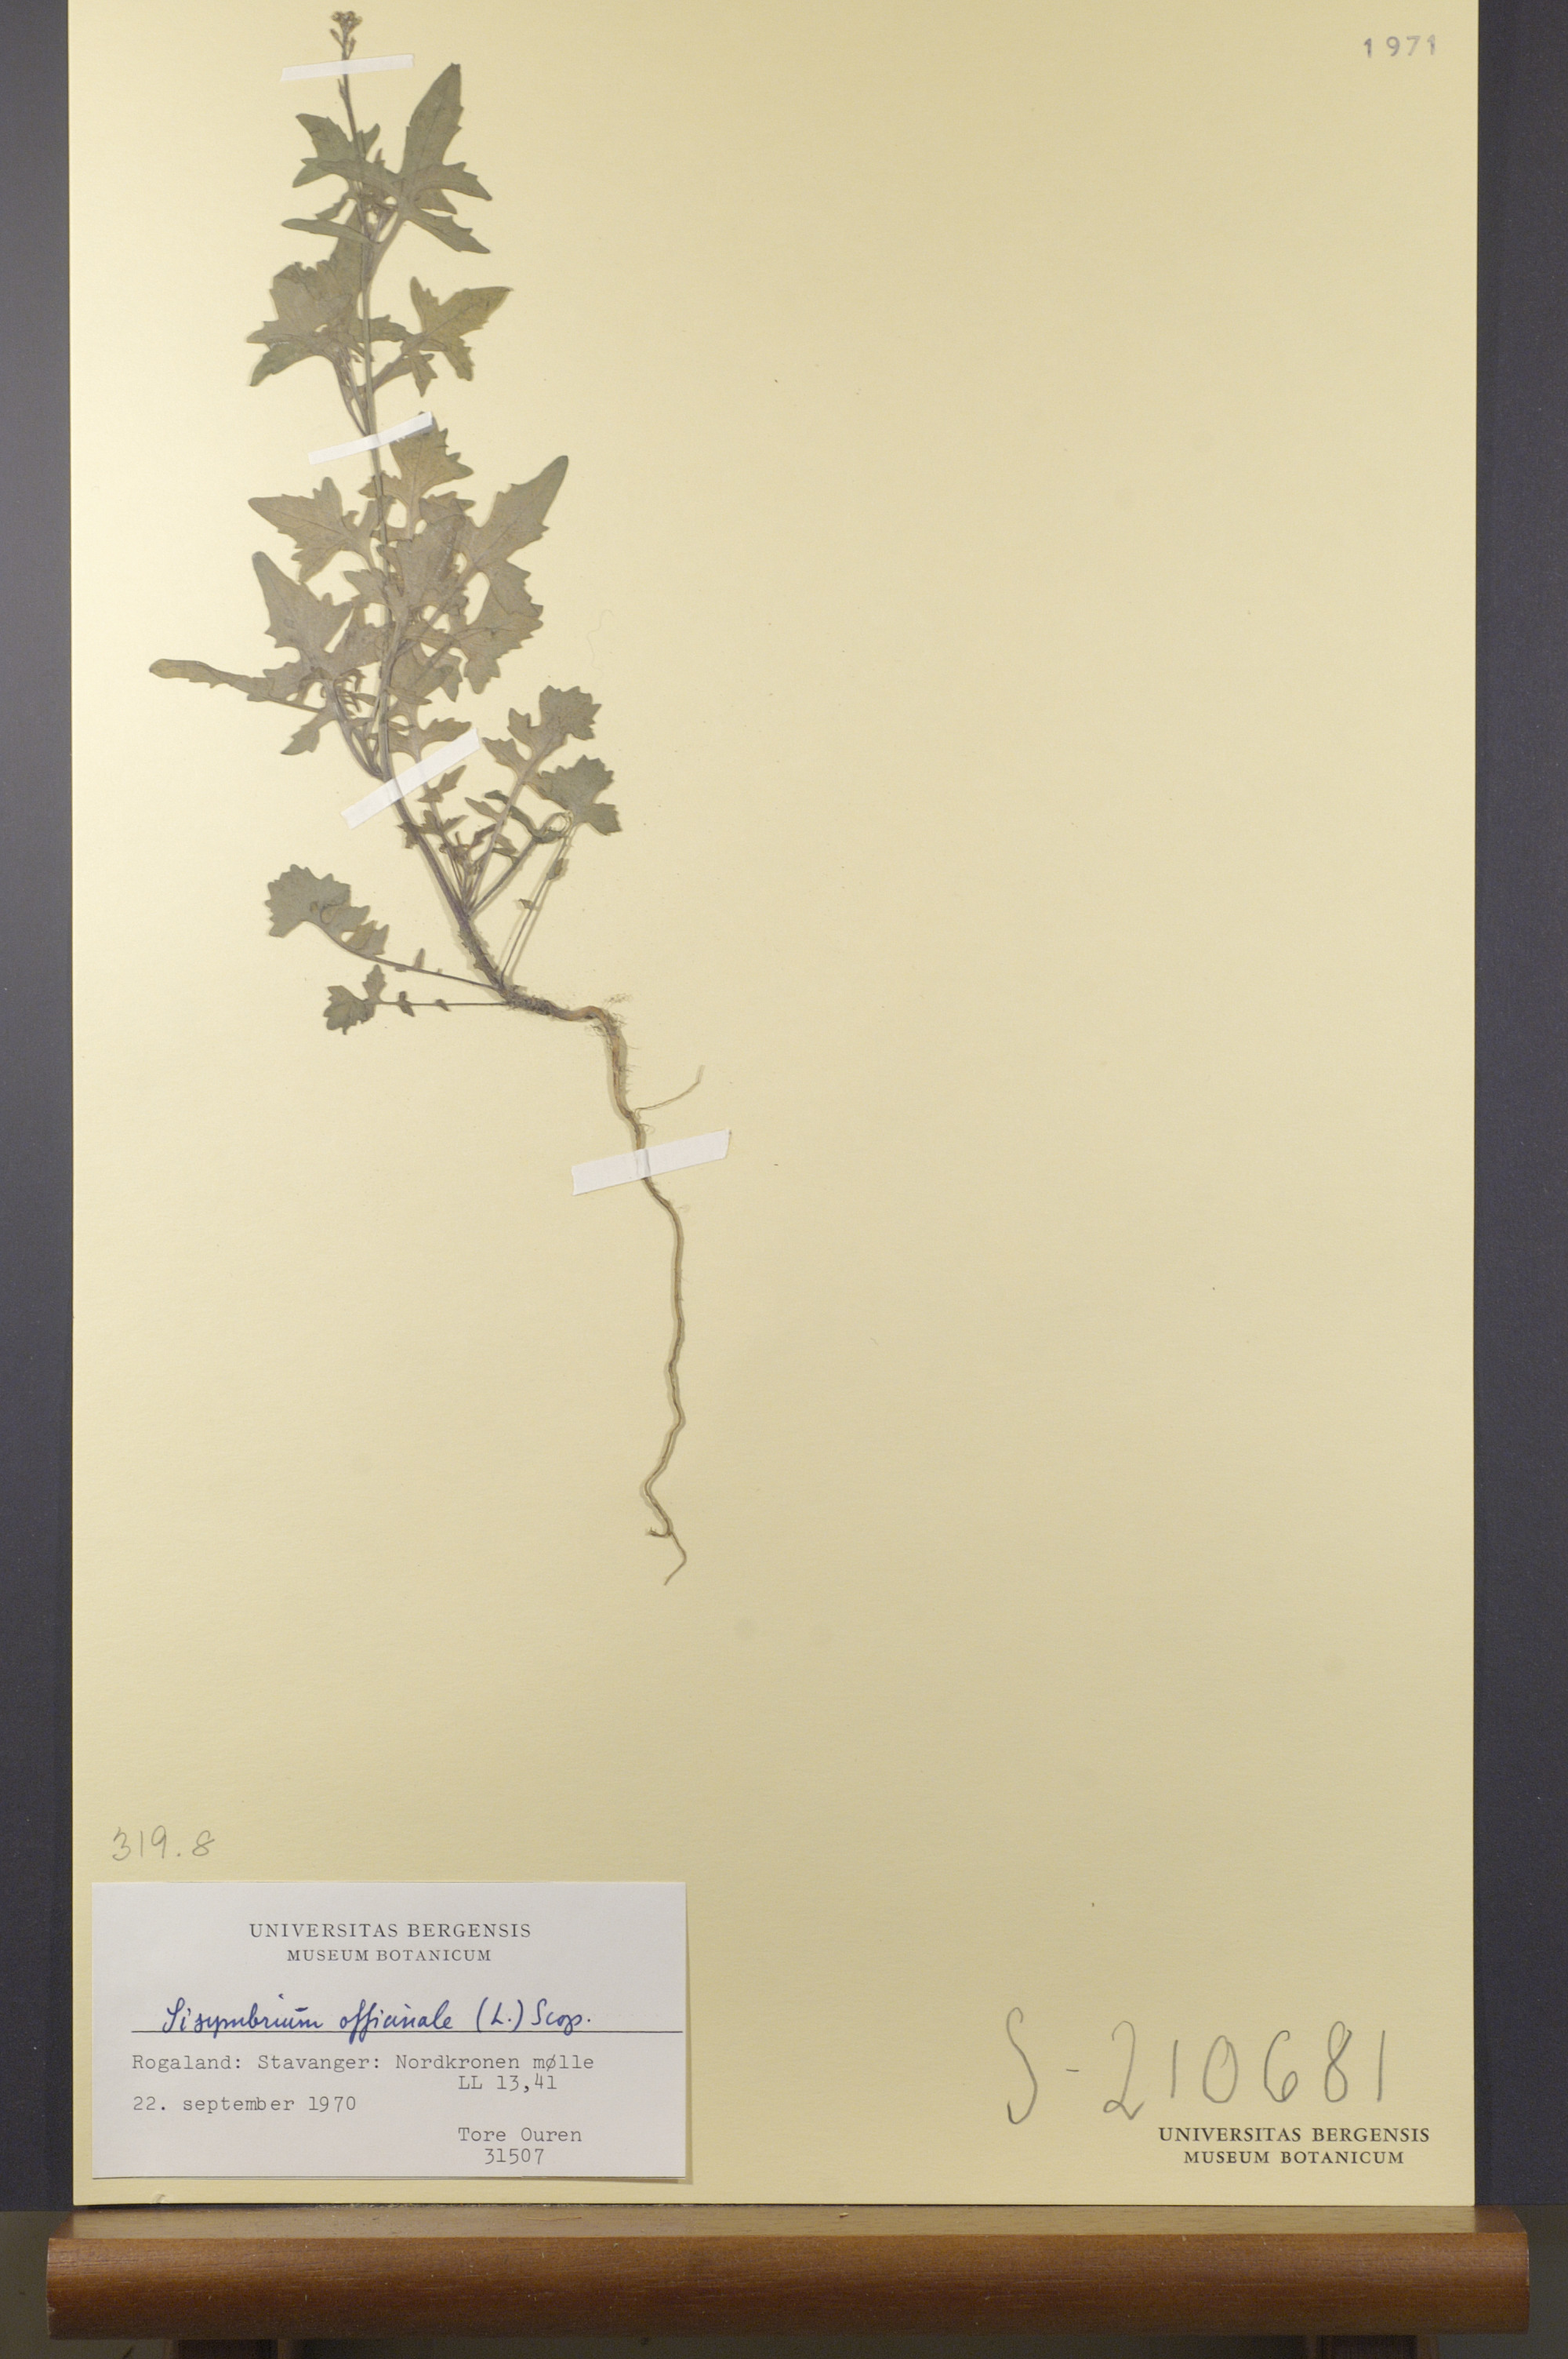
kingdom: Plantae
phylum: Tracheophyta
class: Magnoliopsida
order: Brassicales
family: Brassicaceae
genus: Sisymbrium
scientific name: Sisymbrium officinale
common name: Hedge mustard
